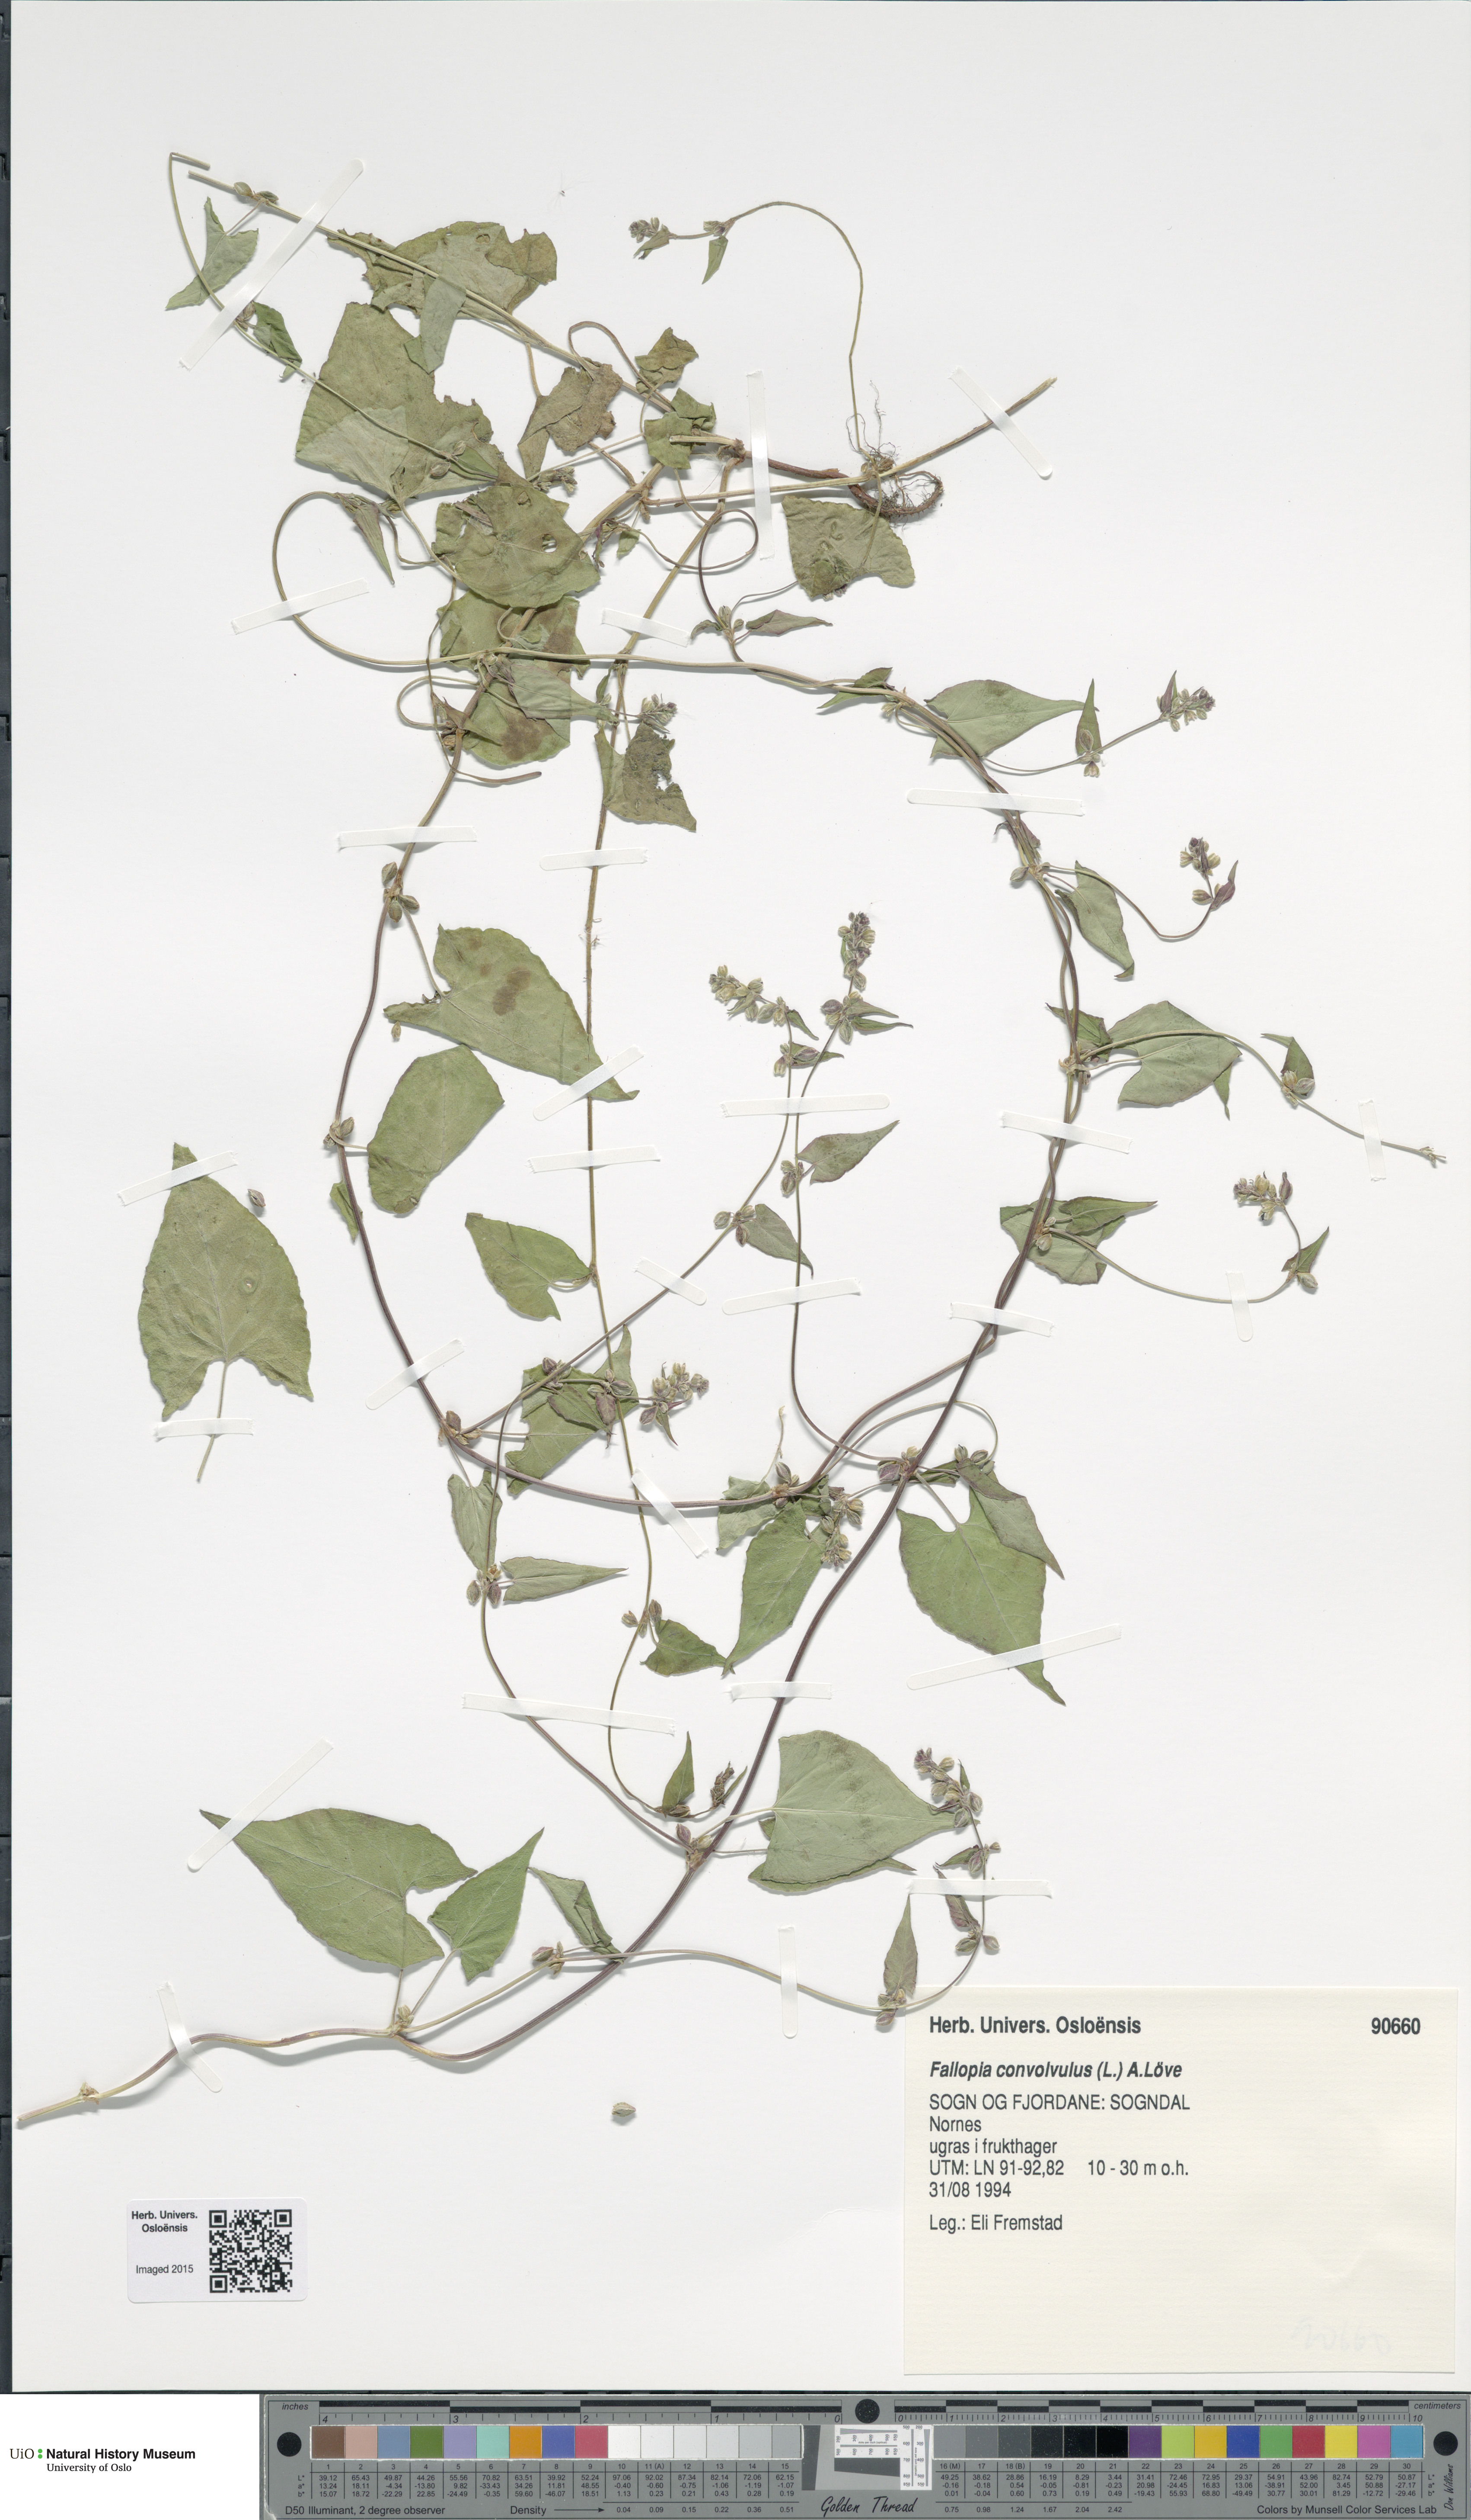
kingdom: Plantae
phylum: Tracheophyta
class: Magnoliopsida
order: Caryophyllales
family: Polygonaceae
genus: Fallopia
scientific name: Fallopia convolvulus
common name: Black bindweed
